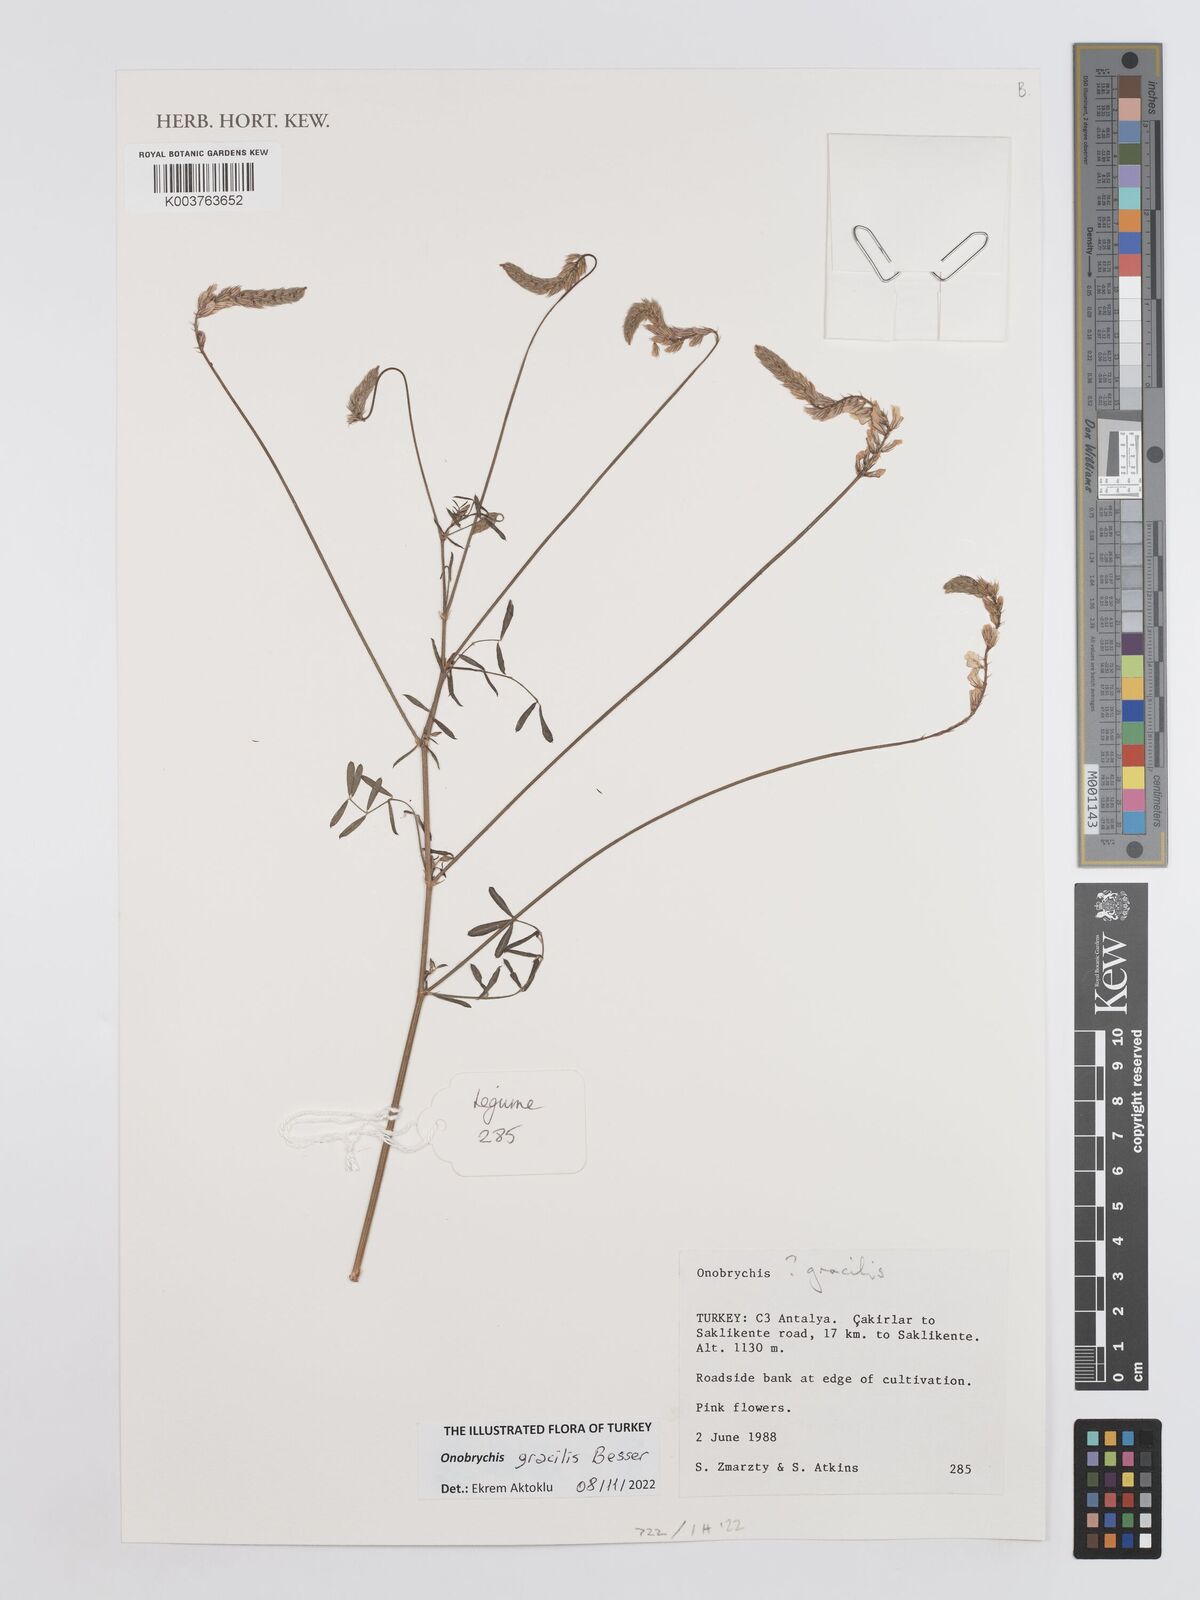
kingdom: Plantae
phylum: Tracheophyta
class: Magnoliopsida
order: Fabales
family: Fabaceae
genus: Onobrychis
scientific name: Onobrychis gracilis
